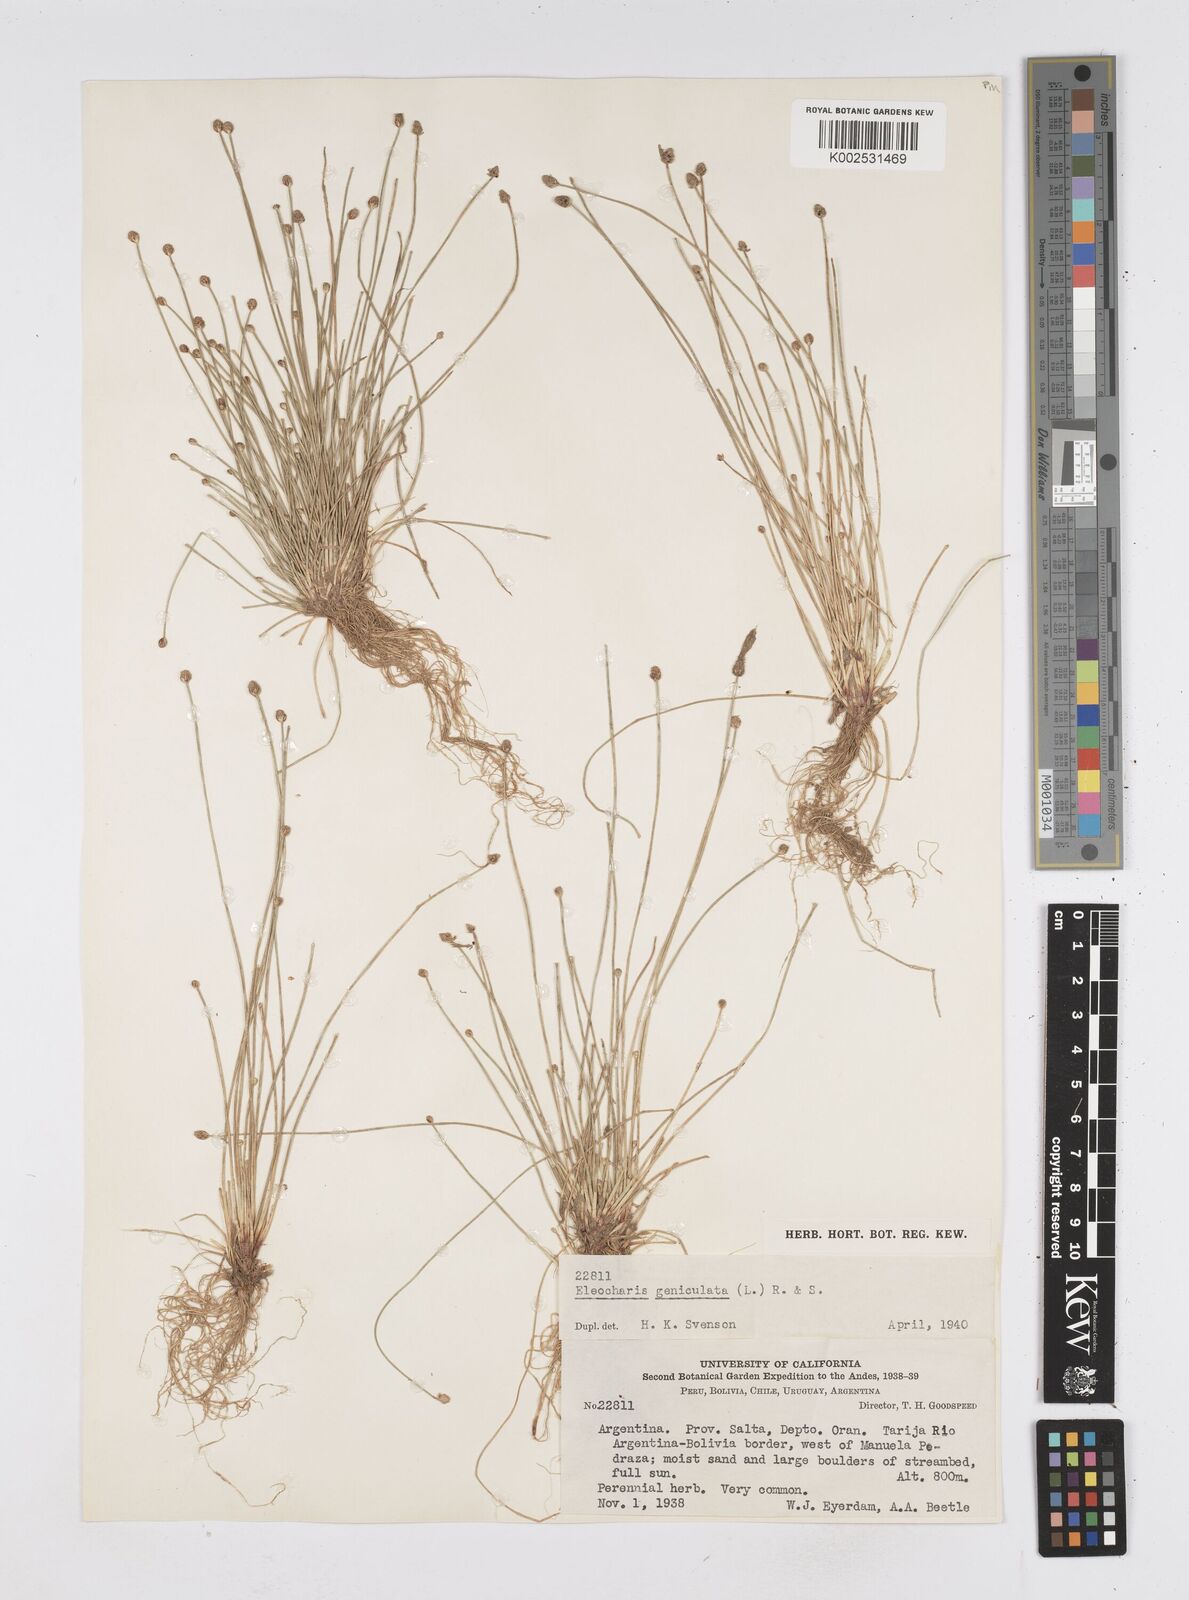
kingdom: Plantae
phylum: Tracheophyta
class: Liliopsida
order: Poales
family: Cyperaceae
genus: Eleocharis
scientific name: Eleocharis geniculata
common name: Canada spikesedge
